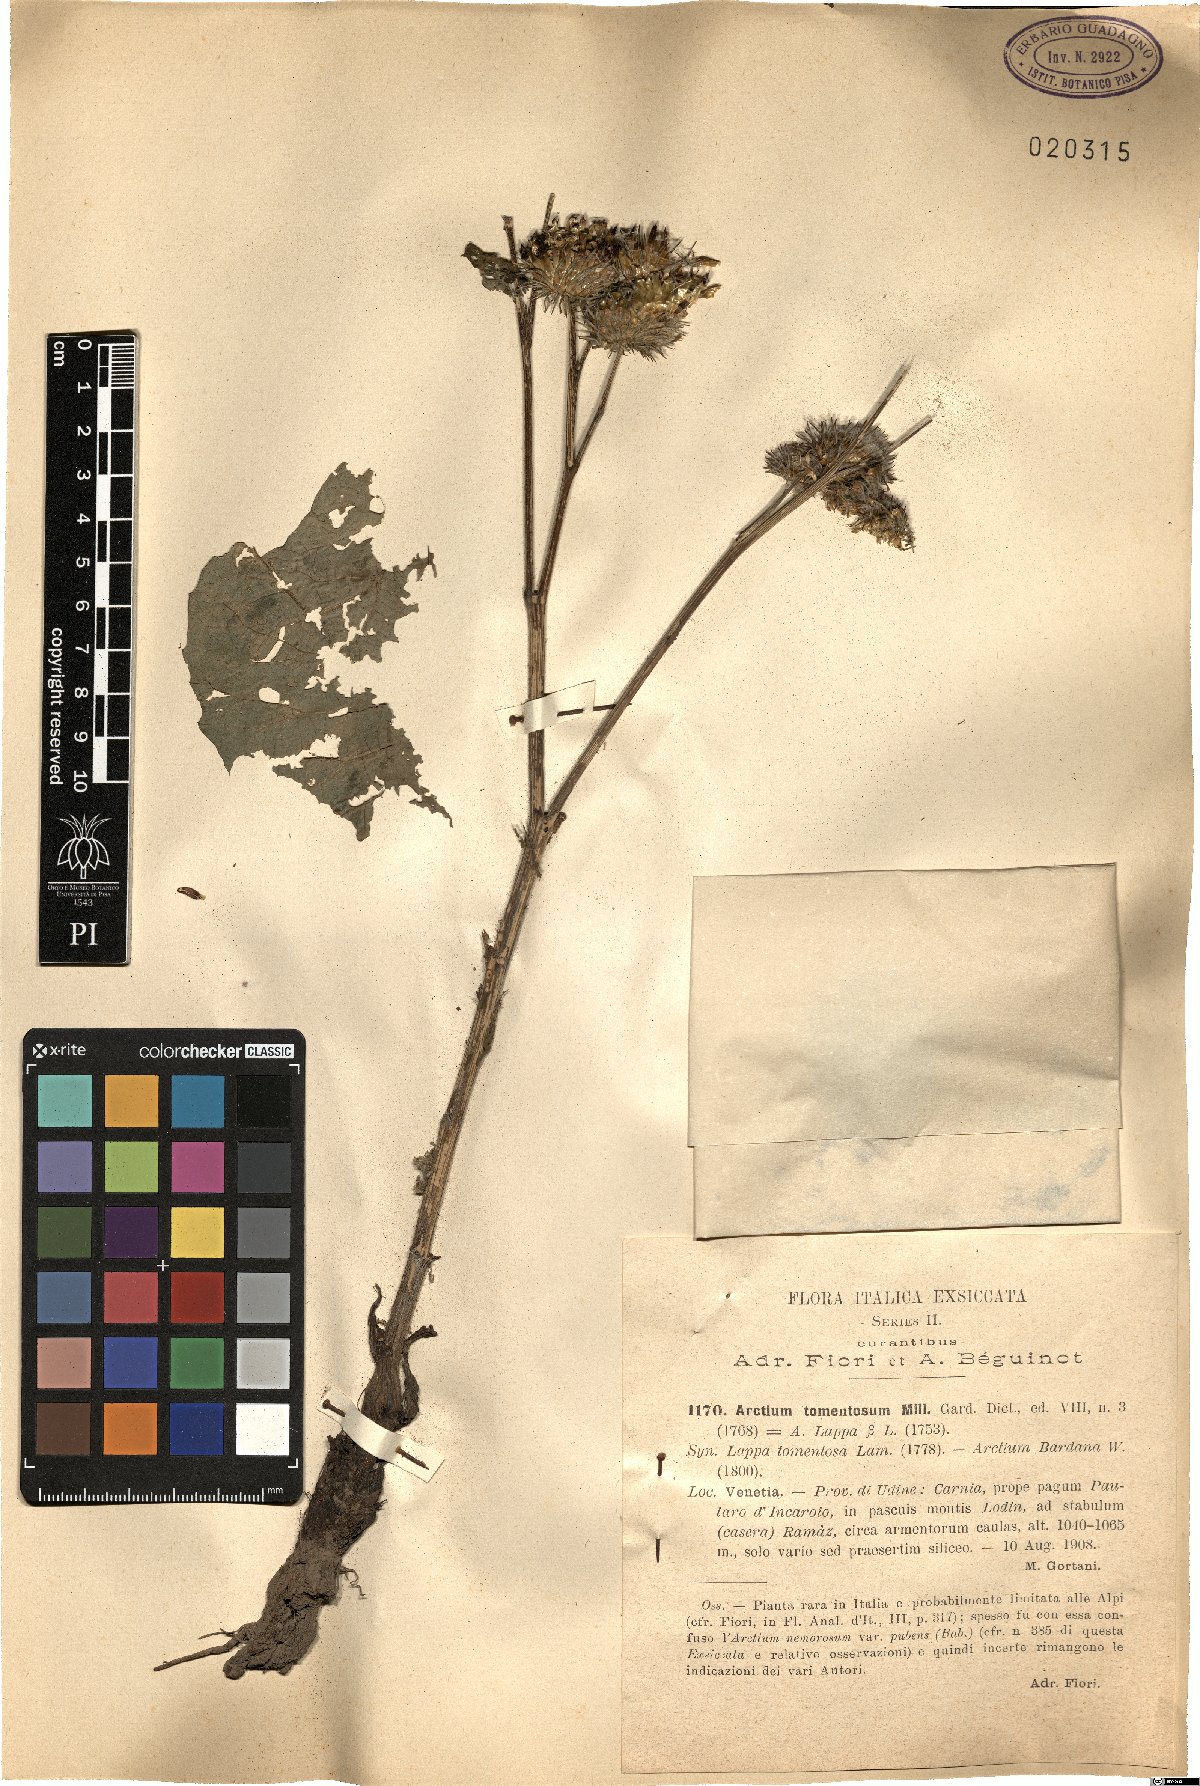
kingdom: Plantae
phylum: Tracheophyta
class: Magnoliopsida
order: Asterales
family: Asteraceae
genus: Arctium
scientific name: Arctium tomentosum
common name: Woolly burdock
